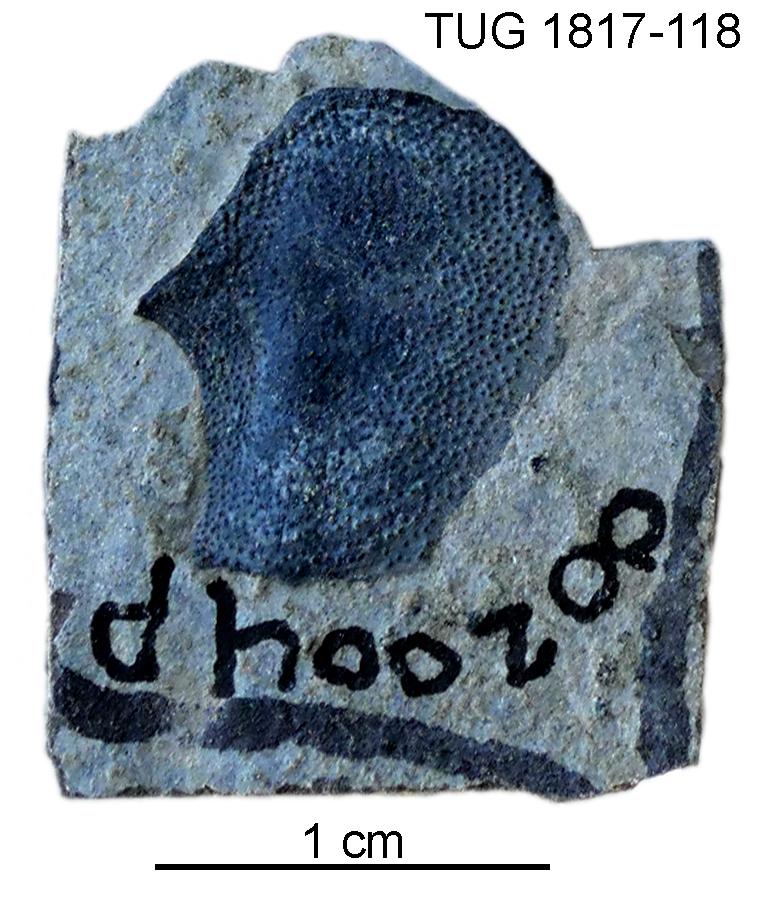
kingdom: Animalia
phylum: Chordata
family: Coccosteidae
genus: Millerosteus
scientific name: Millerosteus minor
